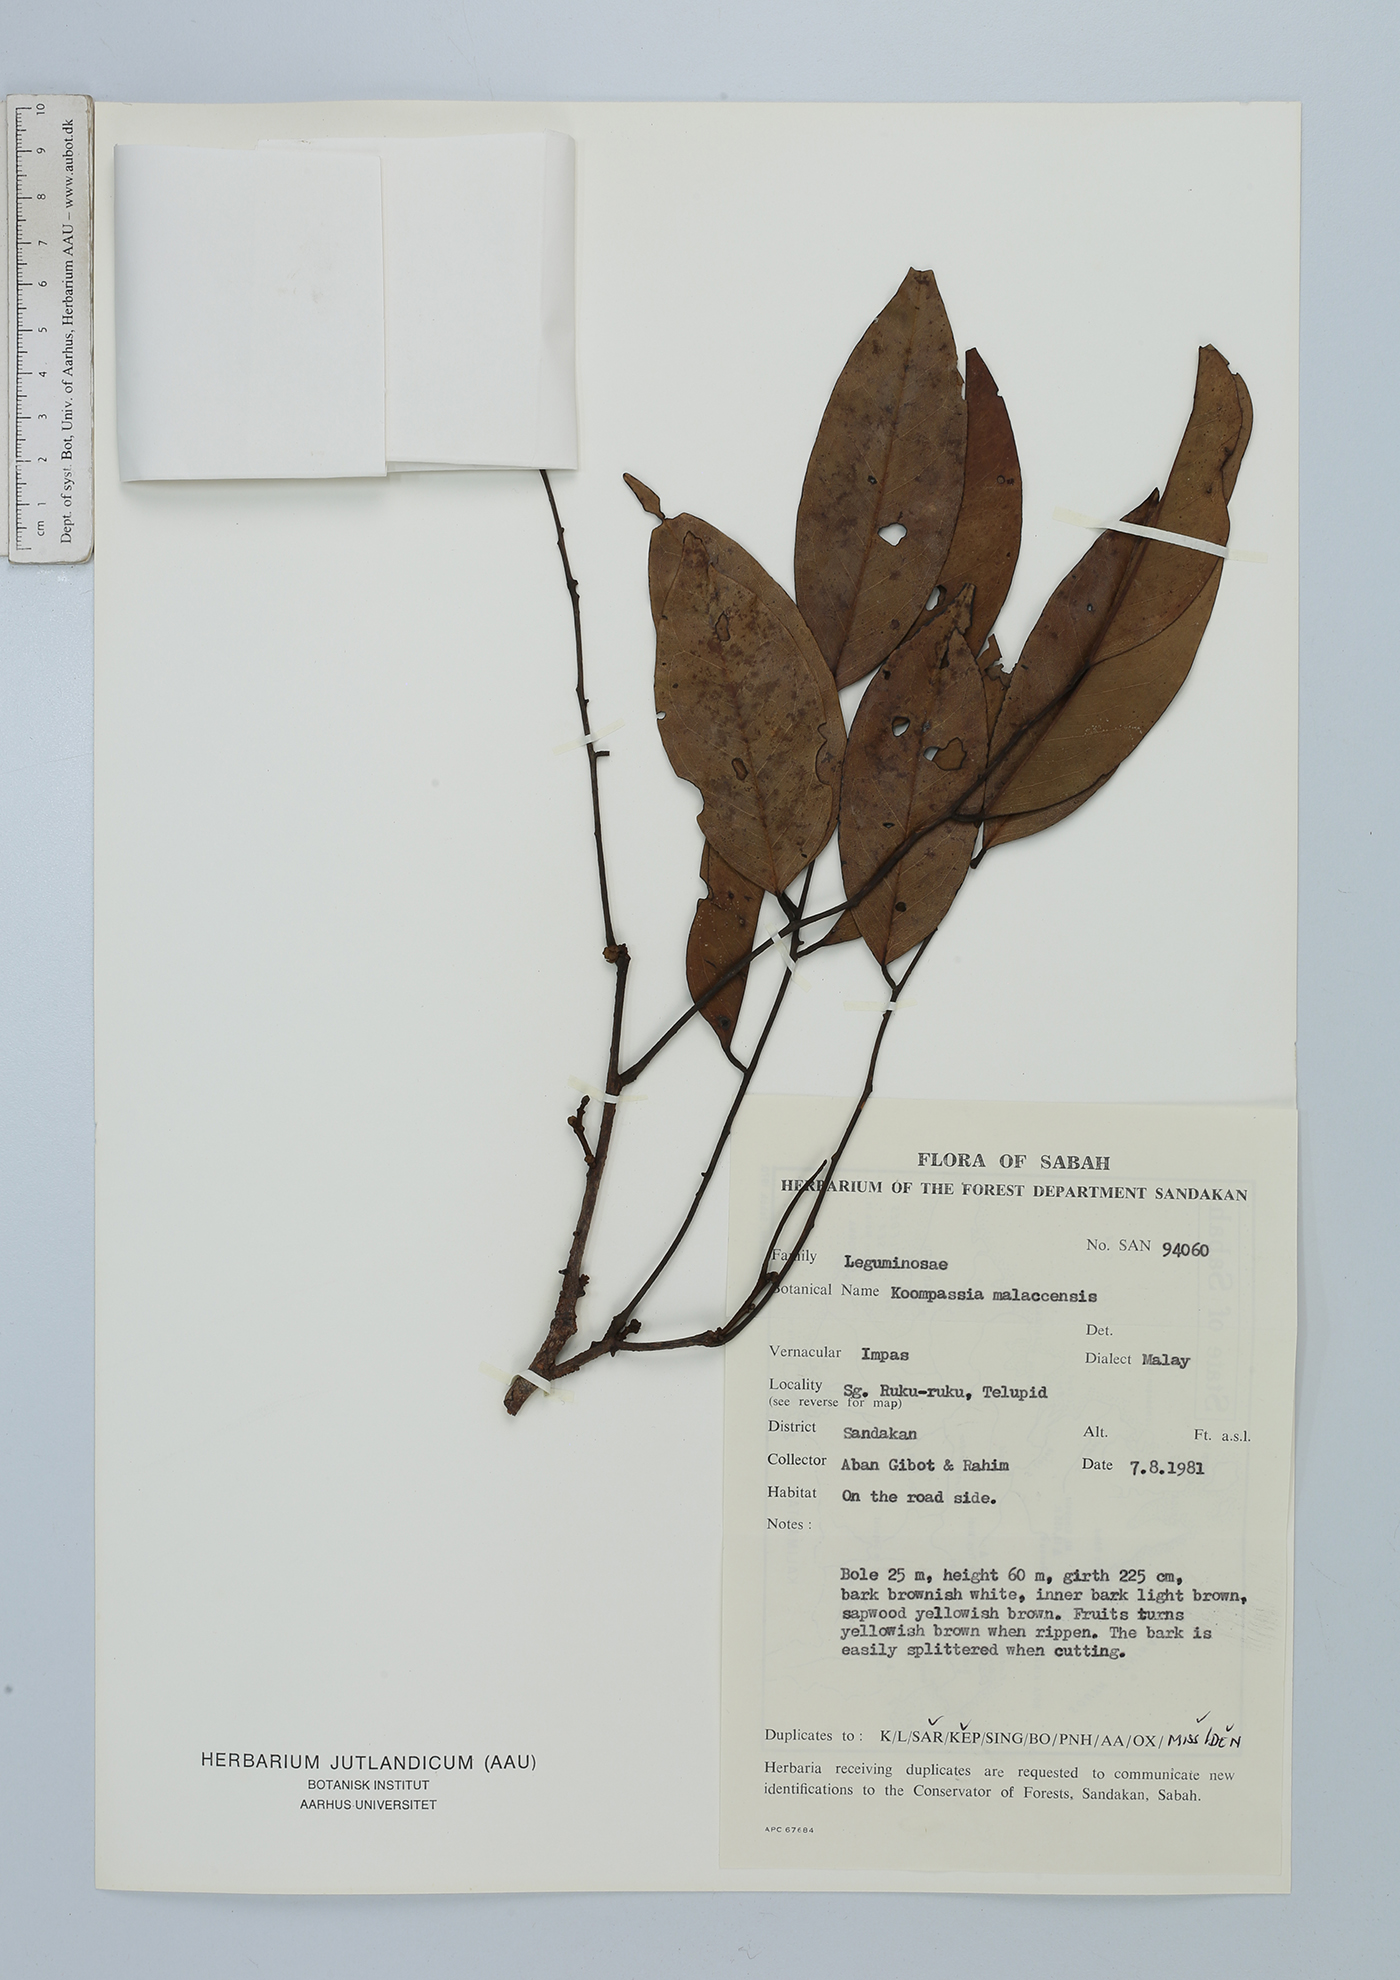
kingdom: Plantae
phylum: Tracheophyta
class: Magnoliopsida
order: Fabales
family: Fabaceae
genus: Koompassia
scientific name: Koompassia malaccensis
